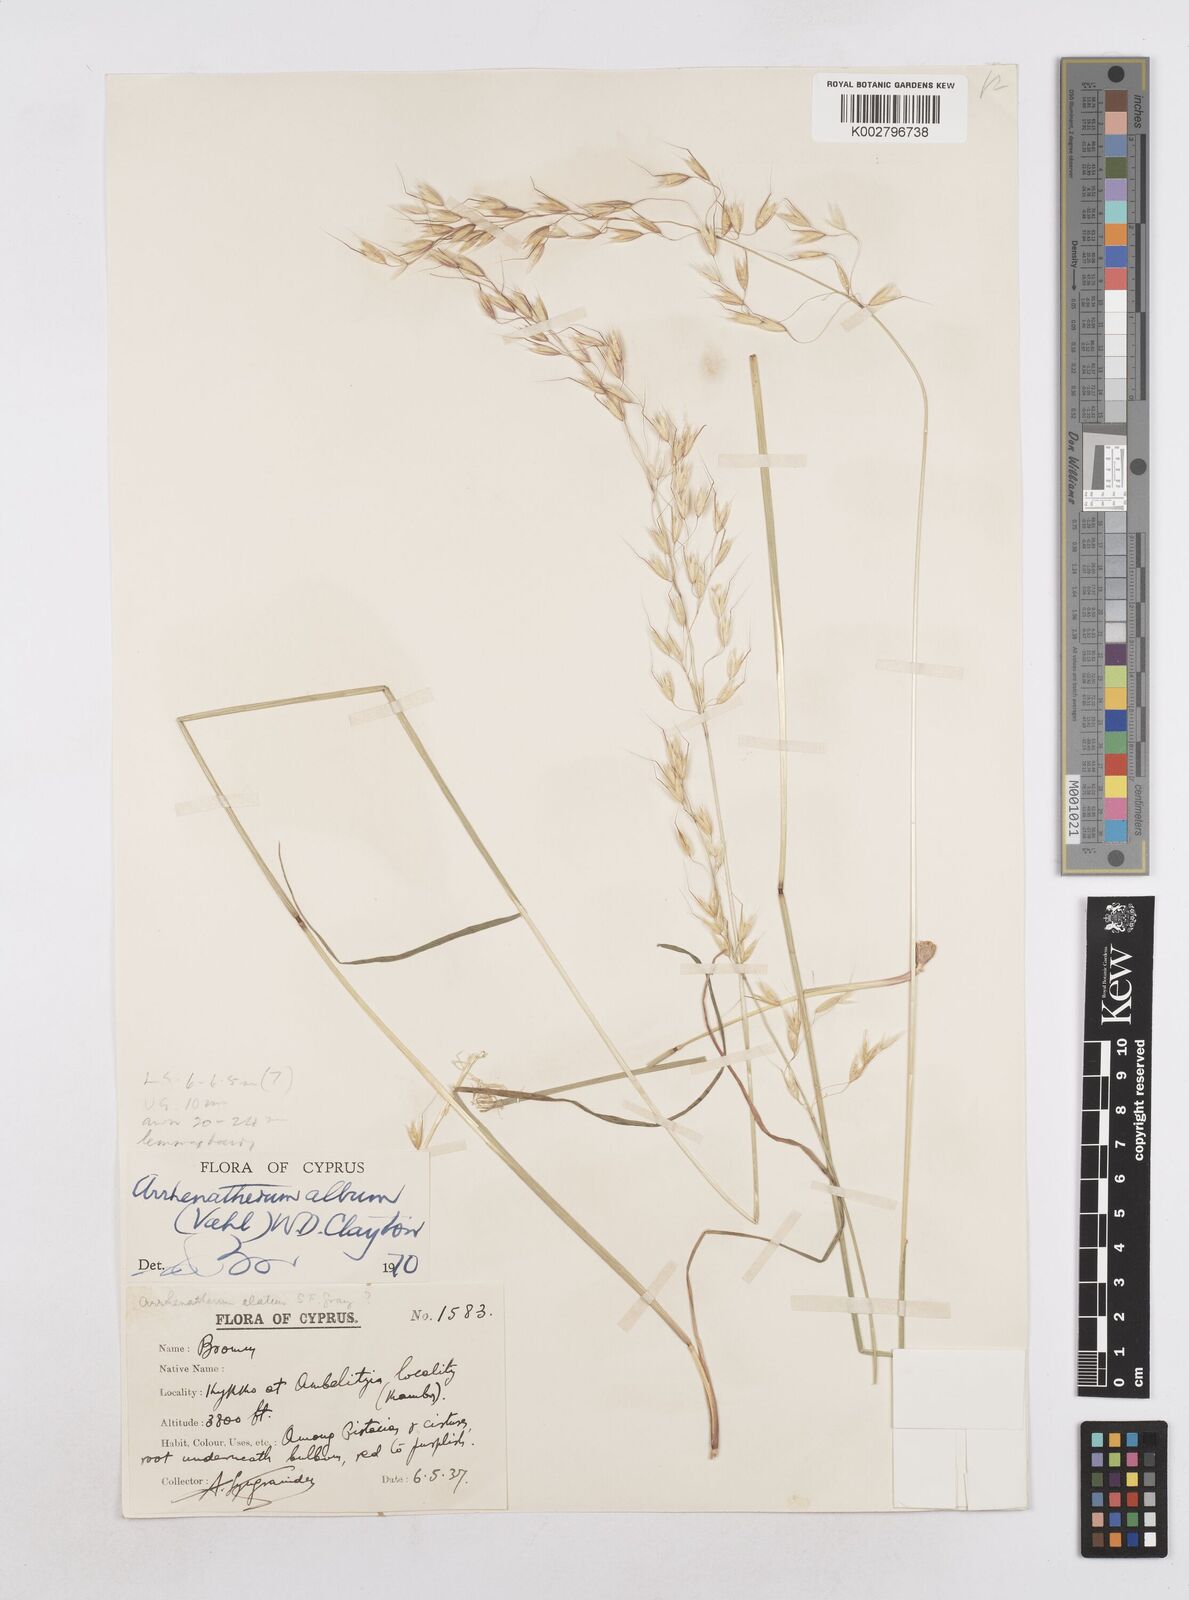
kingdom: Plantae
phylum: Tracheophyta
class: Liliopsida
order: Poales
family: Poaceae
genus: Arrhenatherum
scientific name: Arrhenatherum album
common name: Tall oat grass
